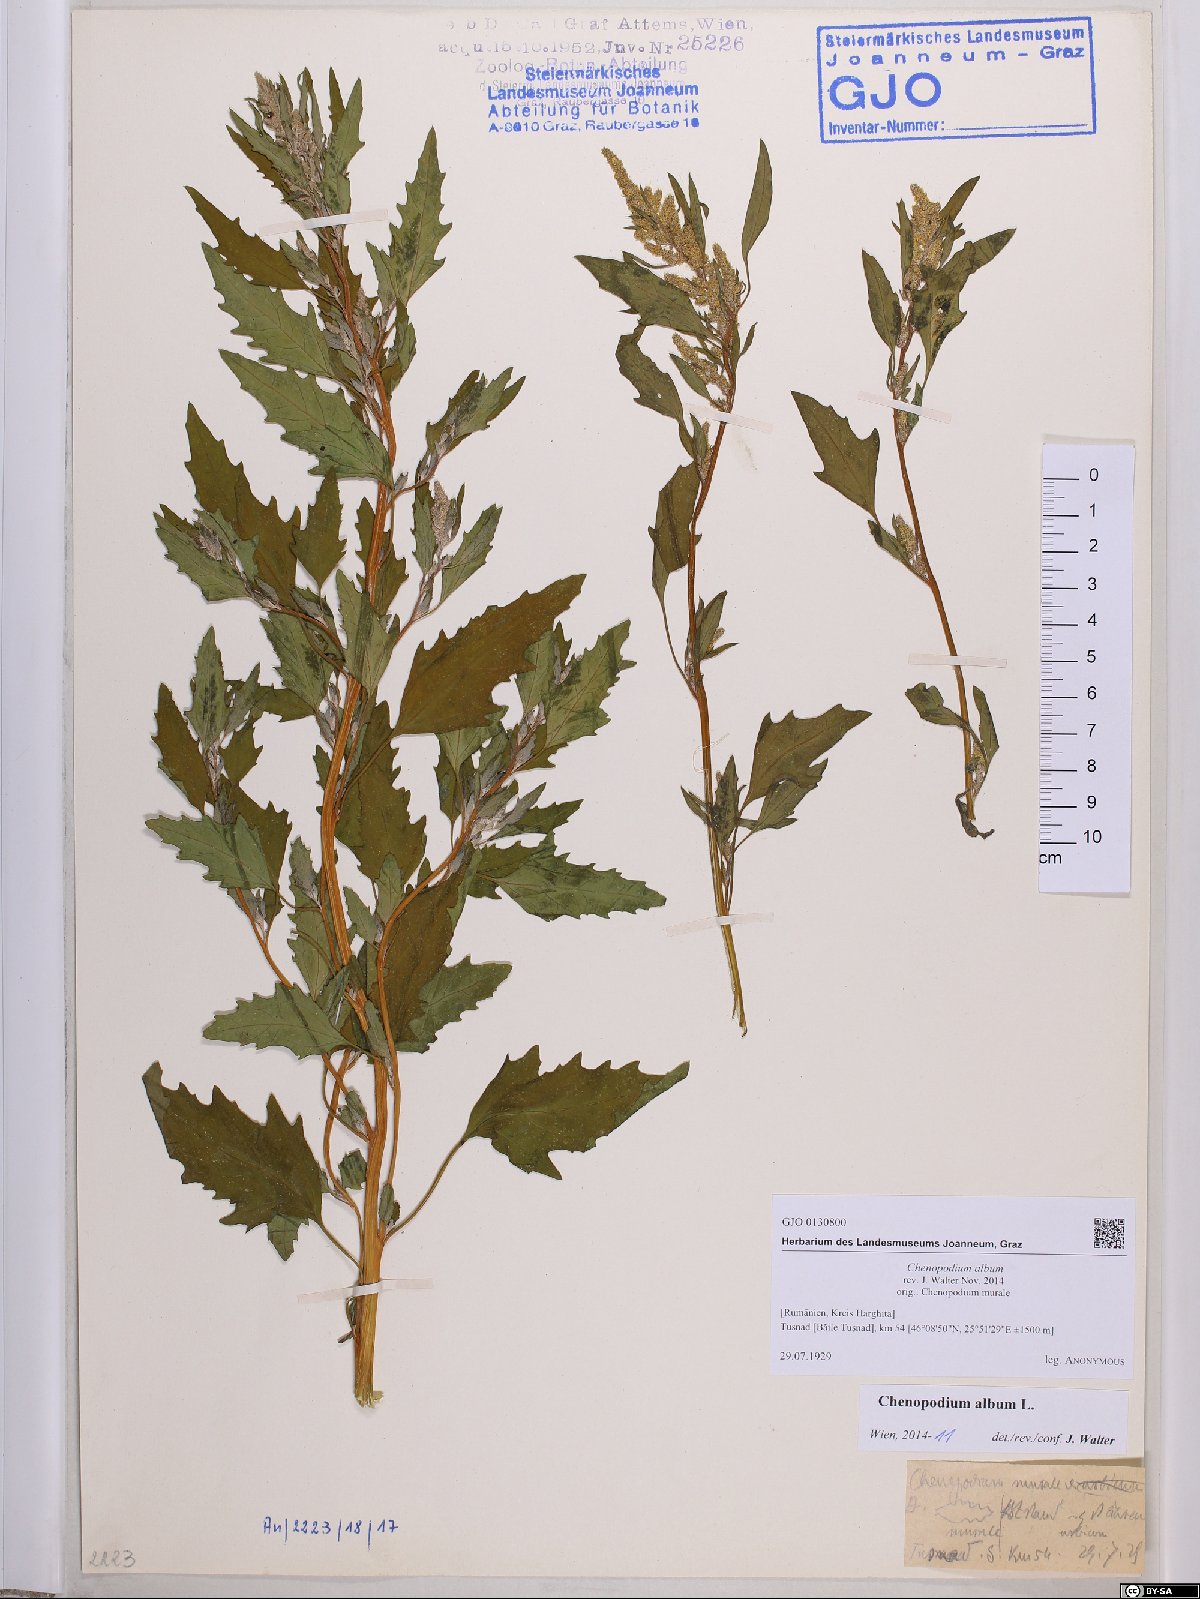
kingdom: Plantae
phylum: Tracheophyta
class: Magnoliopsida
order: Caryophyllales
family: Amaranthaceae
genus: Chenopodium
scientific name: Chenopodium album
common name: Fat-hen
